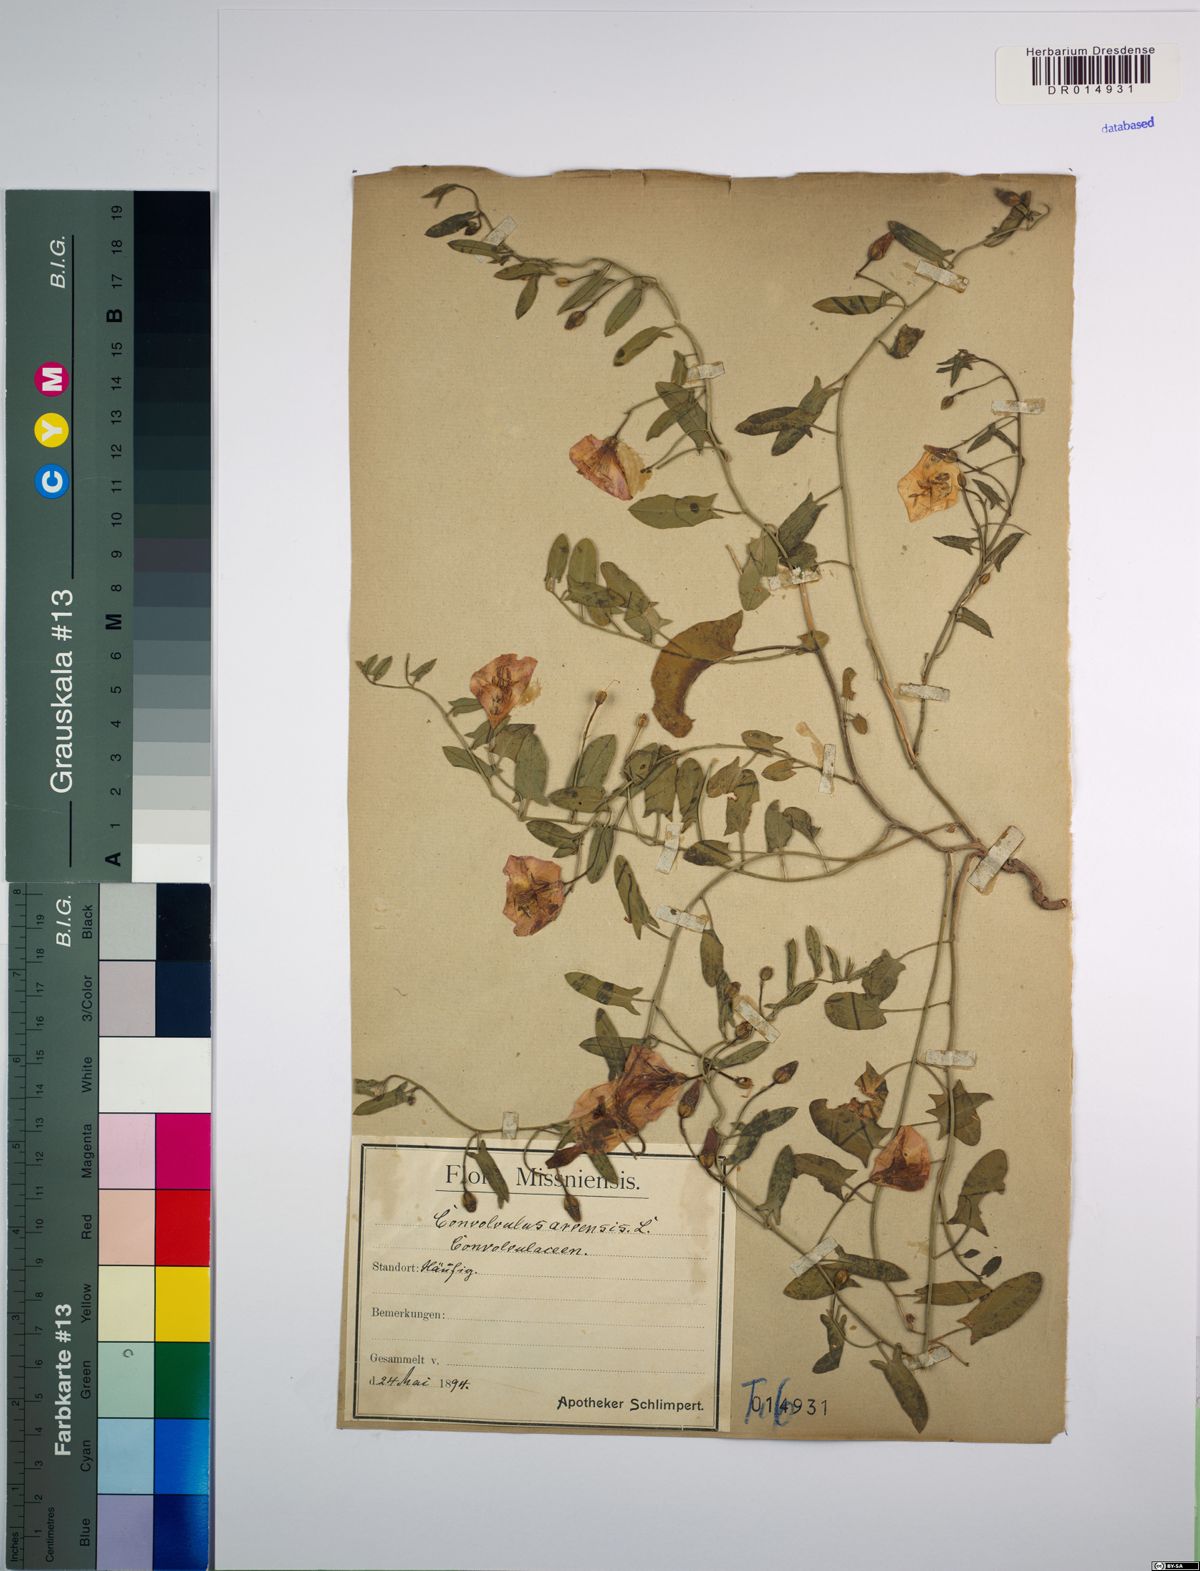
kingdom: Plantae
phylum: Tracheophyta
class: Magnoliopsida
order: Solanales
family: Convolvulaceae
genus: Convolvulus
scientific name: Convolvulus arvensis
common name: Field bindweed
